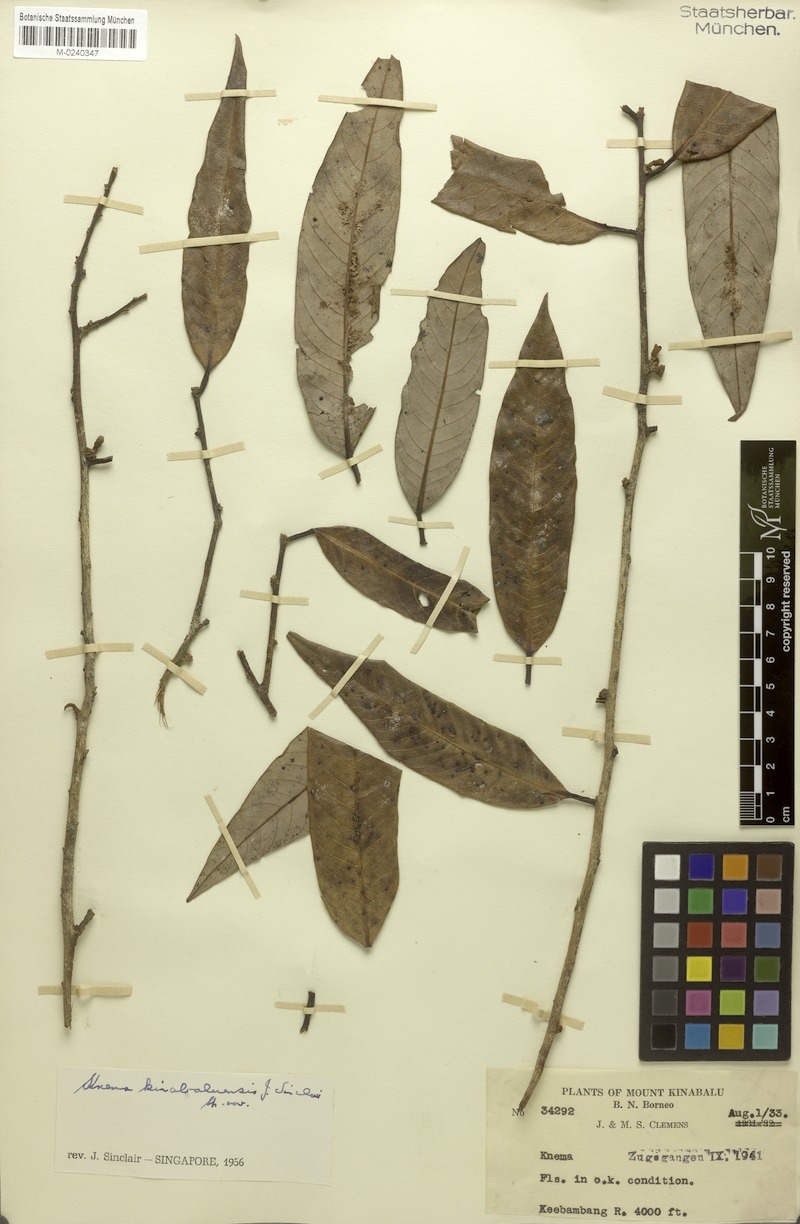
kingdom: Plantae
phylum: Tracheophyta
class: Magnoliopsida
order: Magnoliales
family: Myristicaceae
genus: Knema
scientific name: Knema kinabaluensis
